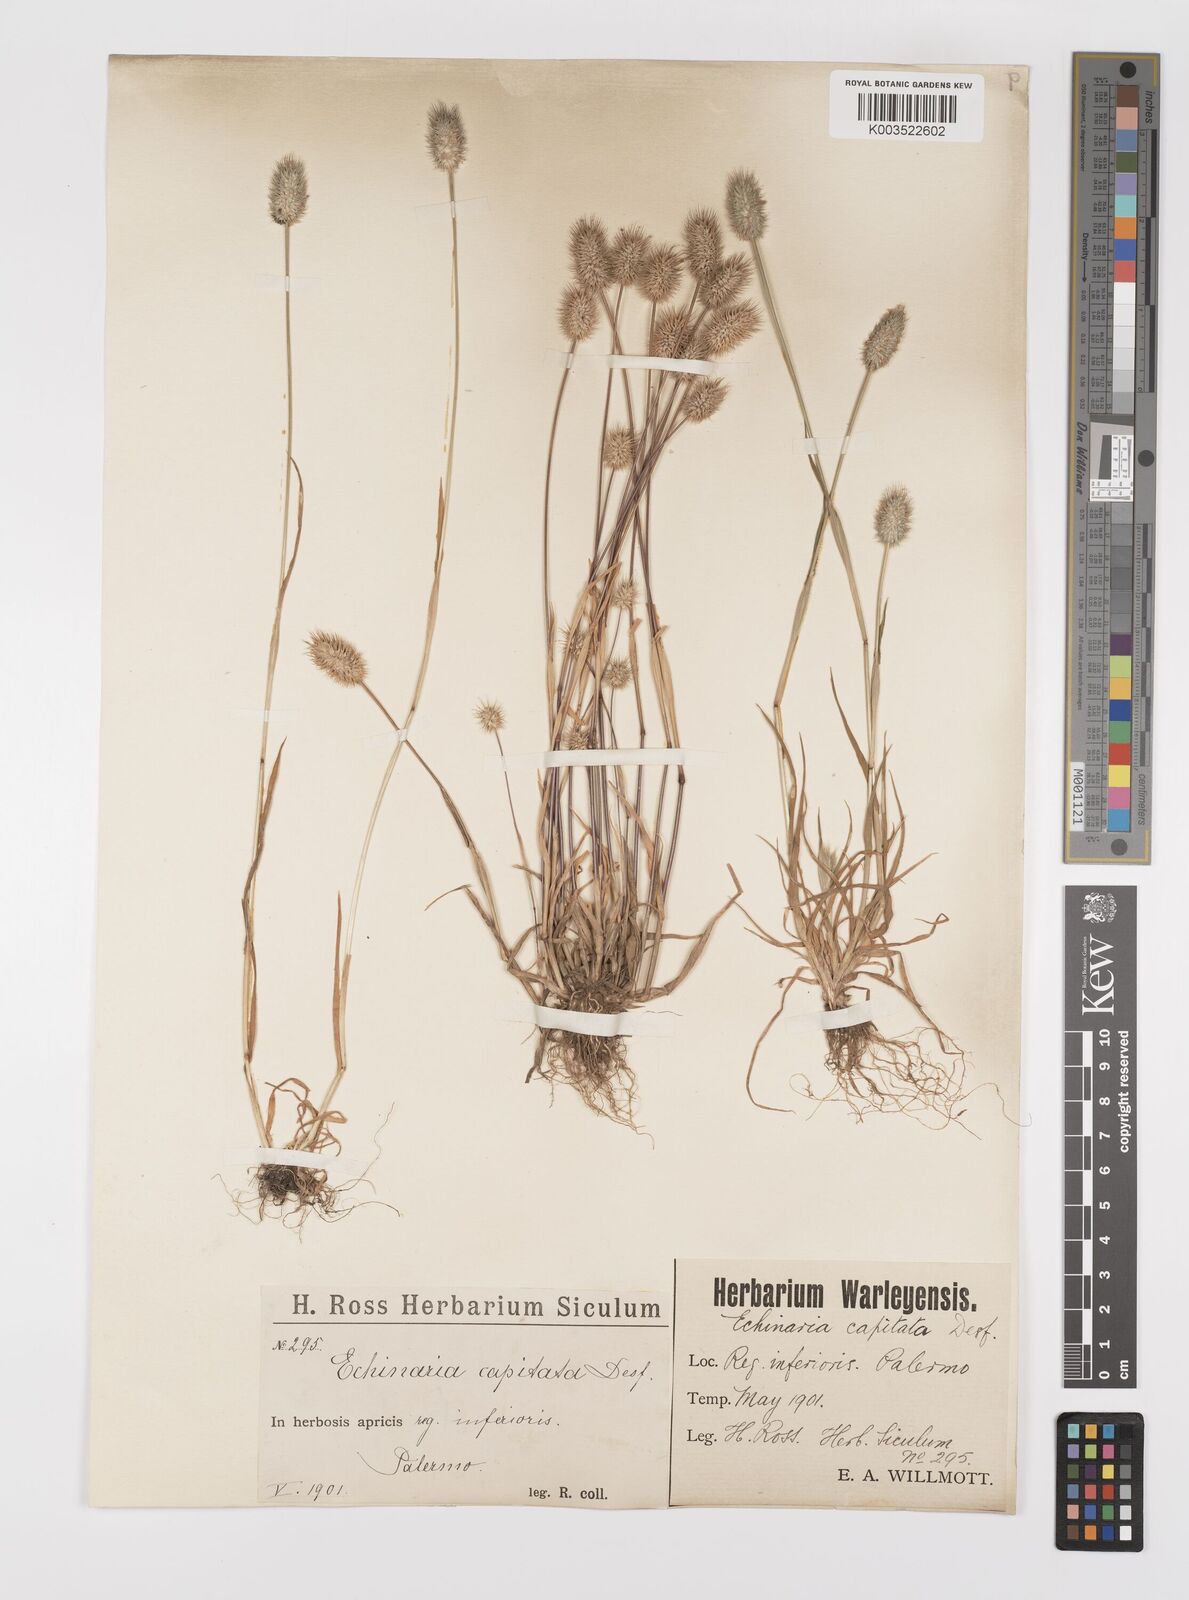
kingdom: Plantae
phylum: Tracheophyta
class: Liliopsida
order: Poales
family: Poaceae
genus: Phleum
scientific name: Phleum echinatum
